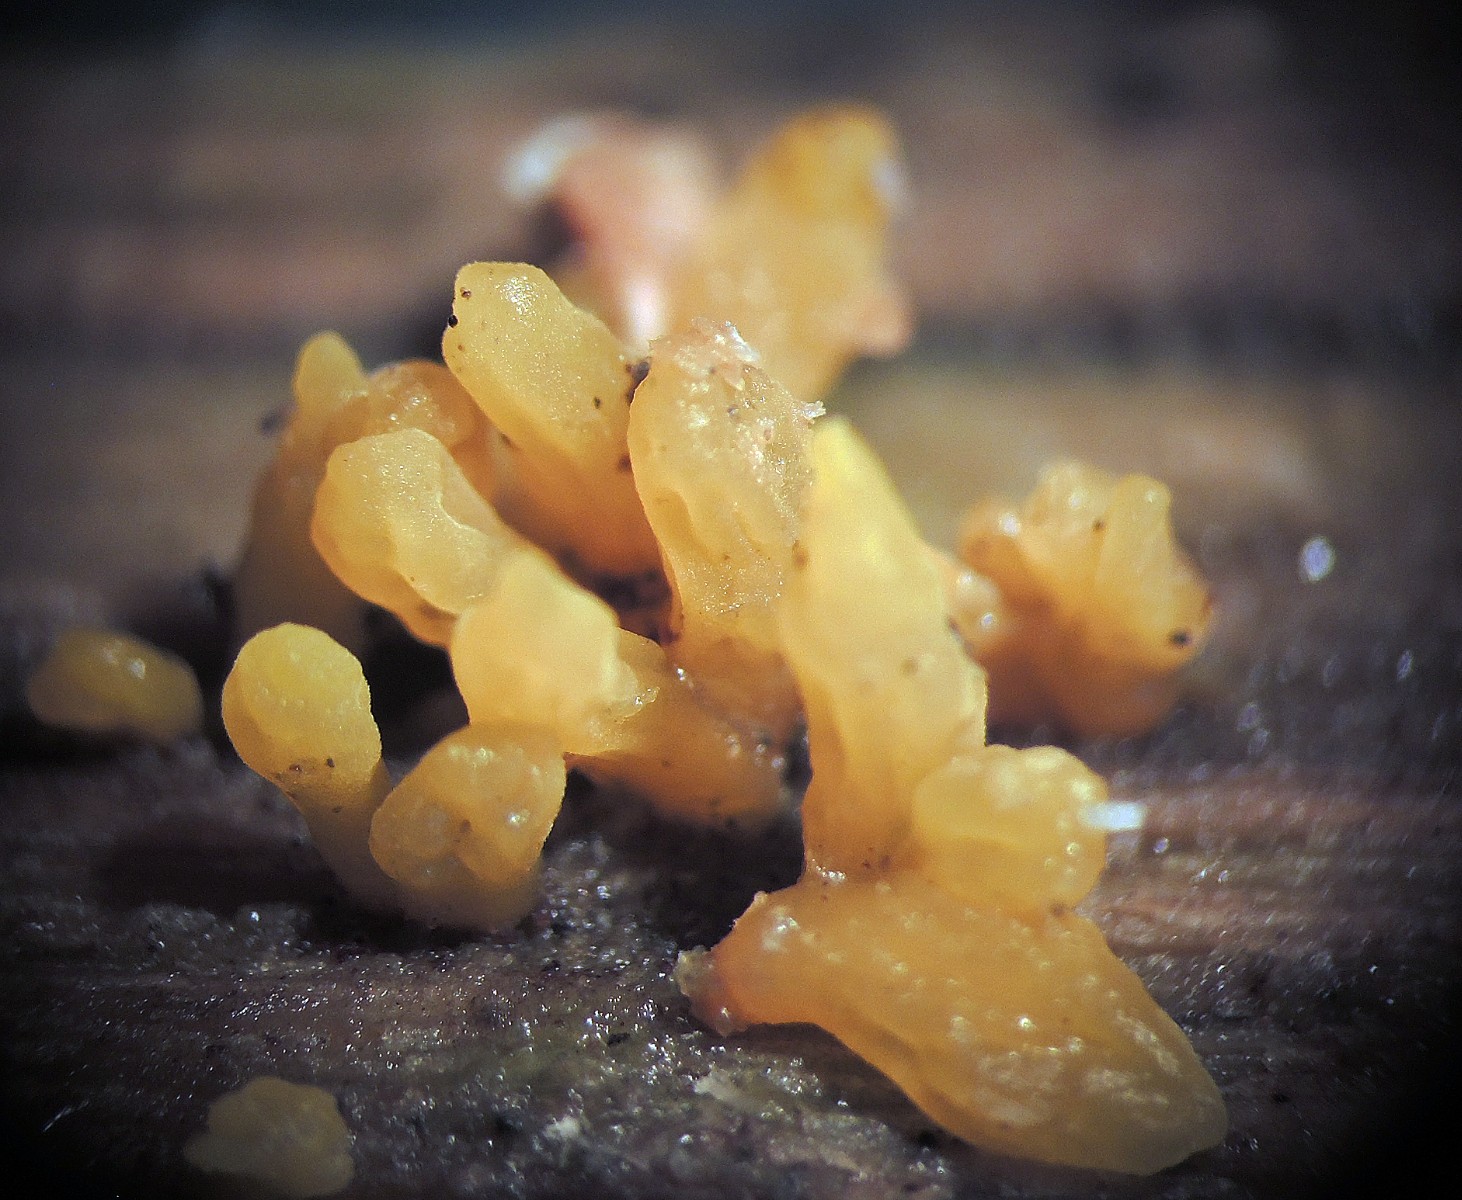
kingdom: Fungi
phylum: Basidiomycota
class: Dacrymycetes
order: Dacrymycetales
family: Dacrymycetaceae
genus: Calocera
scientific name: Calocera cornea
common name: liden guldgaffel
